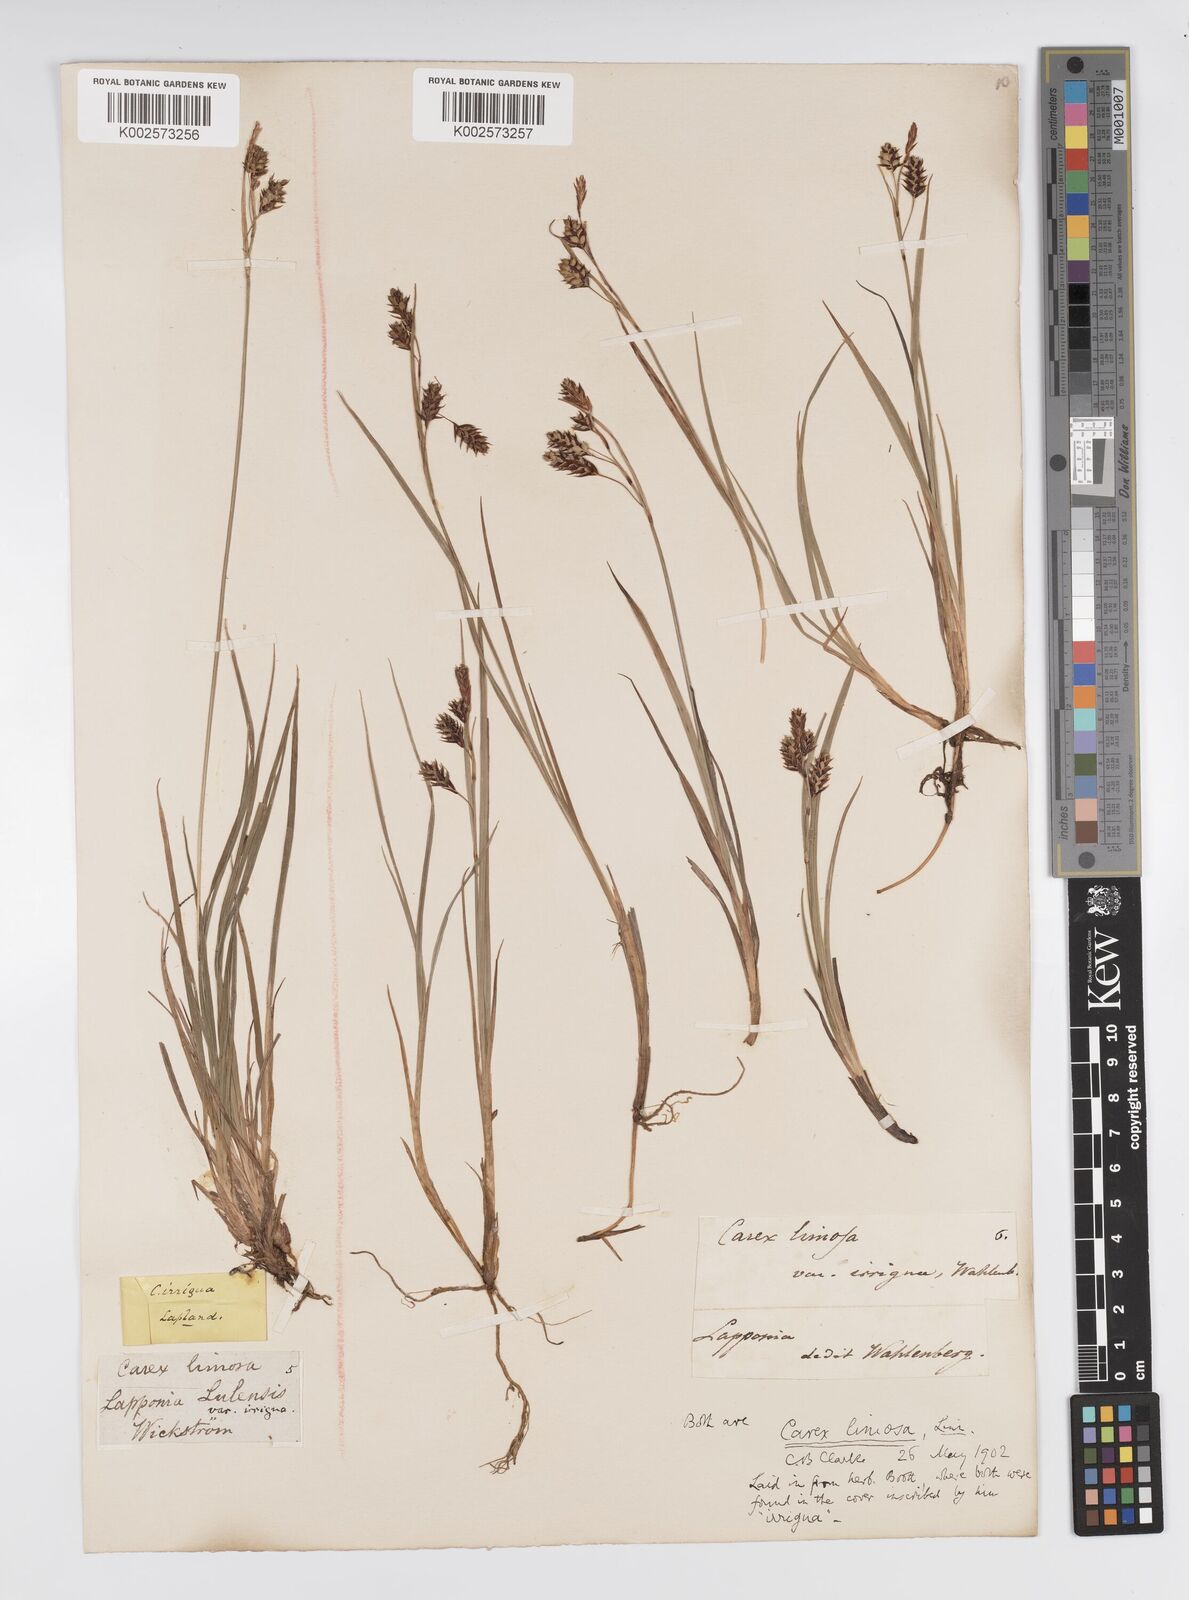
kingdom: Plantae
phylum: Tracheophyta
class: Liliopsida
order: Poales
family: Cyperaceae
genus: Carex
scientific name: Carex magellanica
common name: Bog sedge
